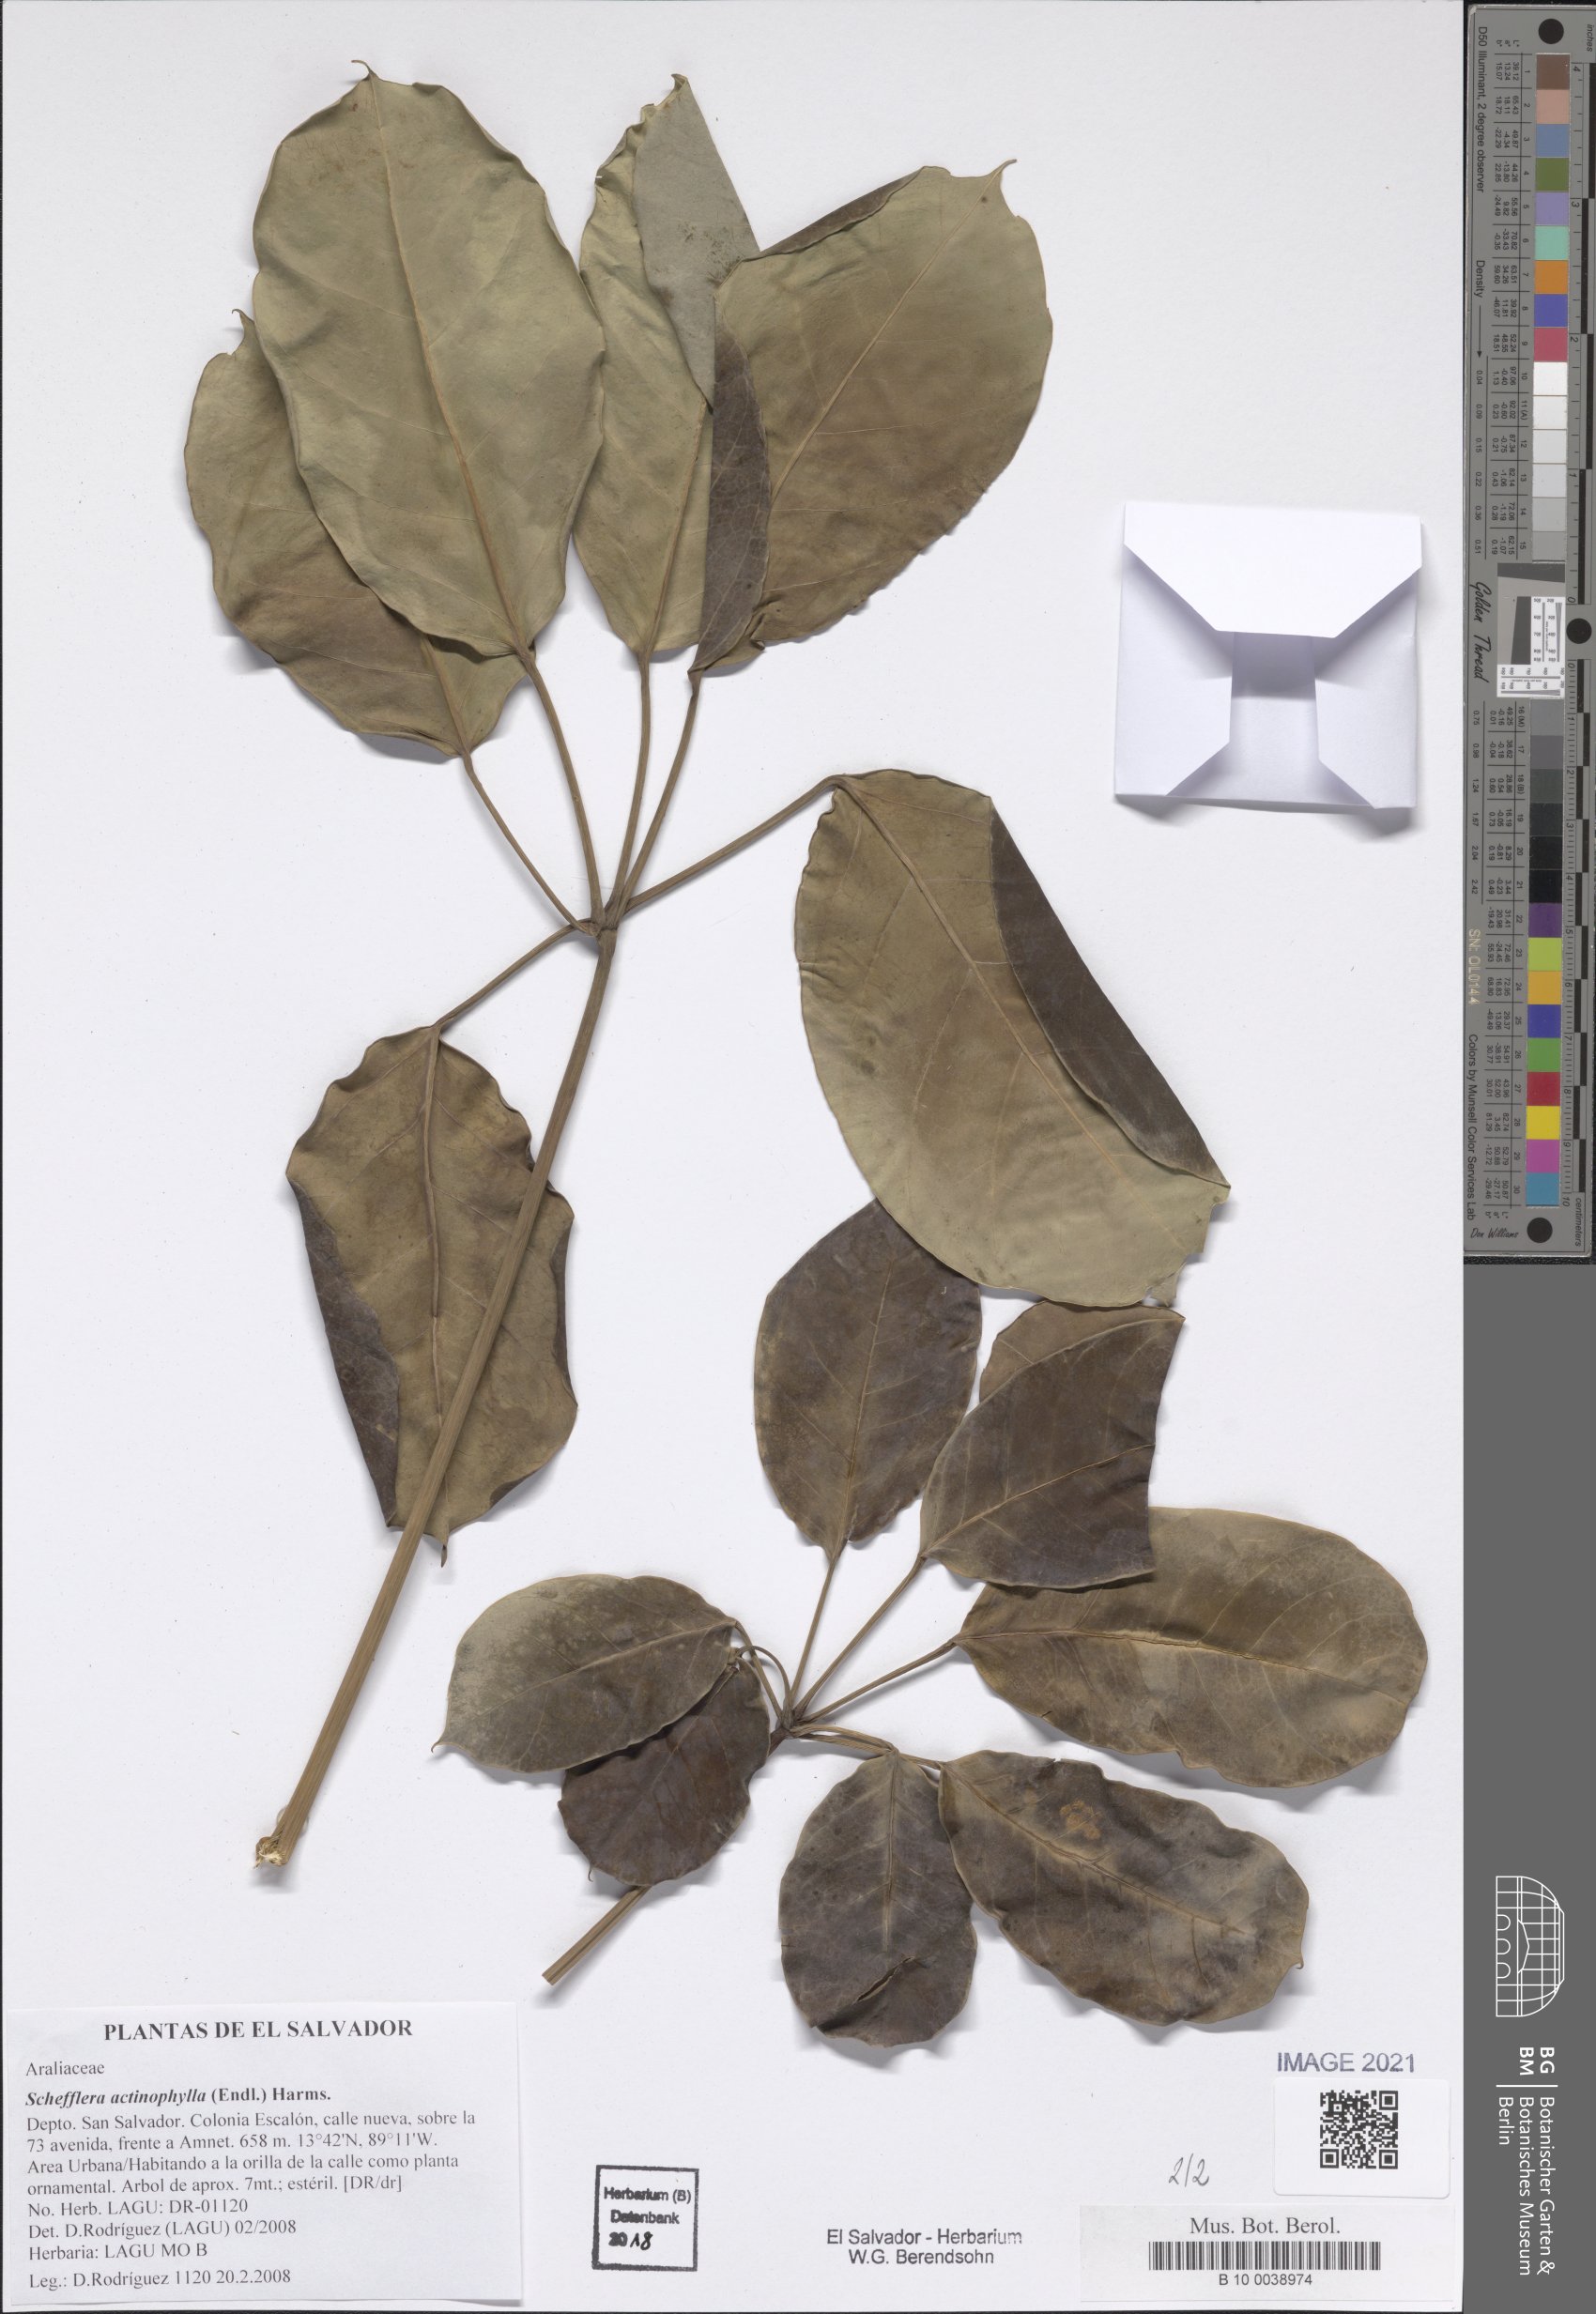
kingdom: Plantae
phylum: Tracheophyta
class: Magnoliopsida
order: Apiales
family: Araliaceae
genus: Heptapleurum
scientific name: Heptapleurum actinophyllum
